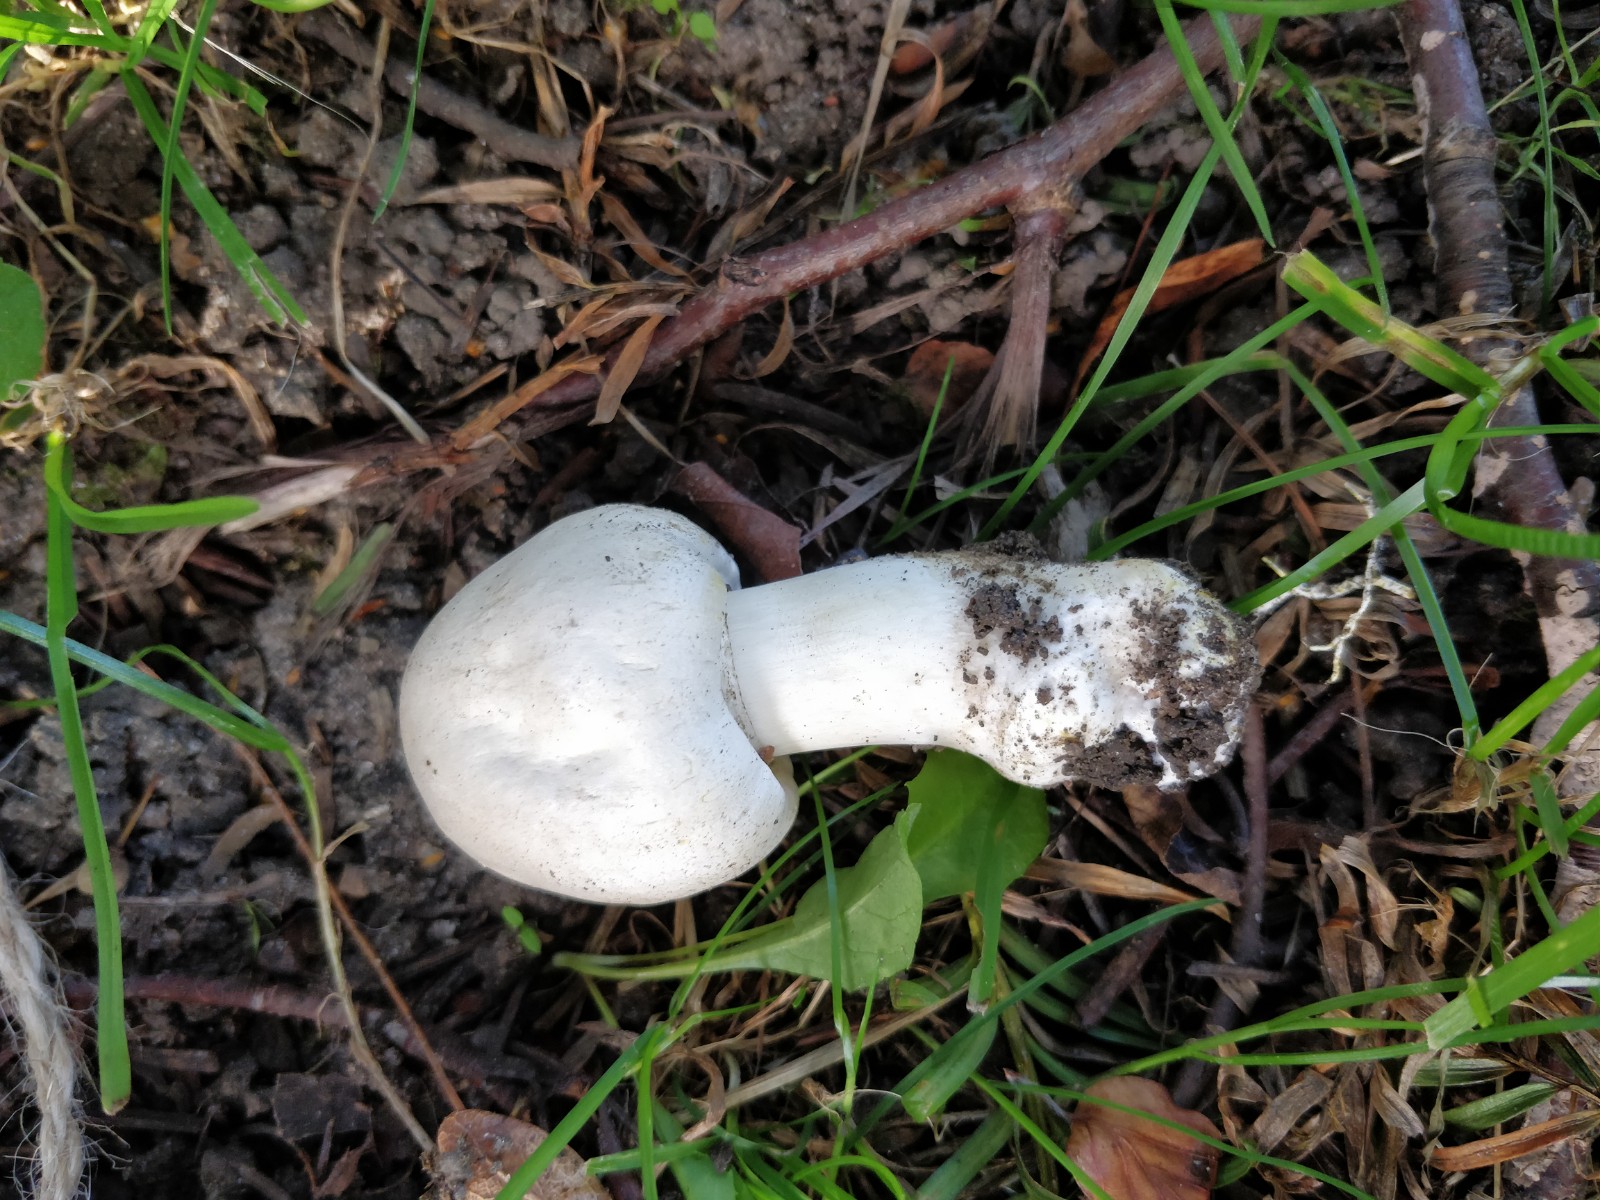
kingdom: Fungi
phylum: Basidiomycota
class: Agaricomycetes
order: Agaricales
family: Agaricaceae
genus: Agaricus
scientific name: Agaricus xanthodermus
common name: karbol-champignon
